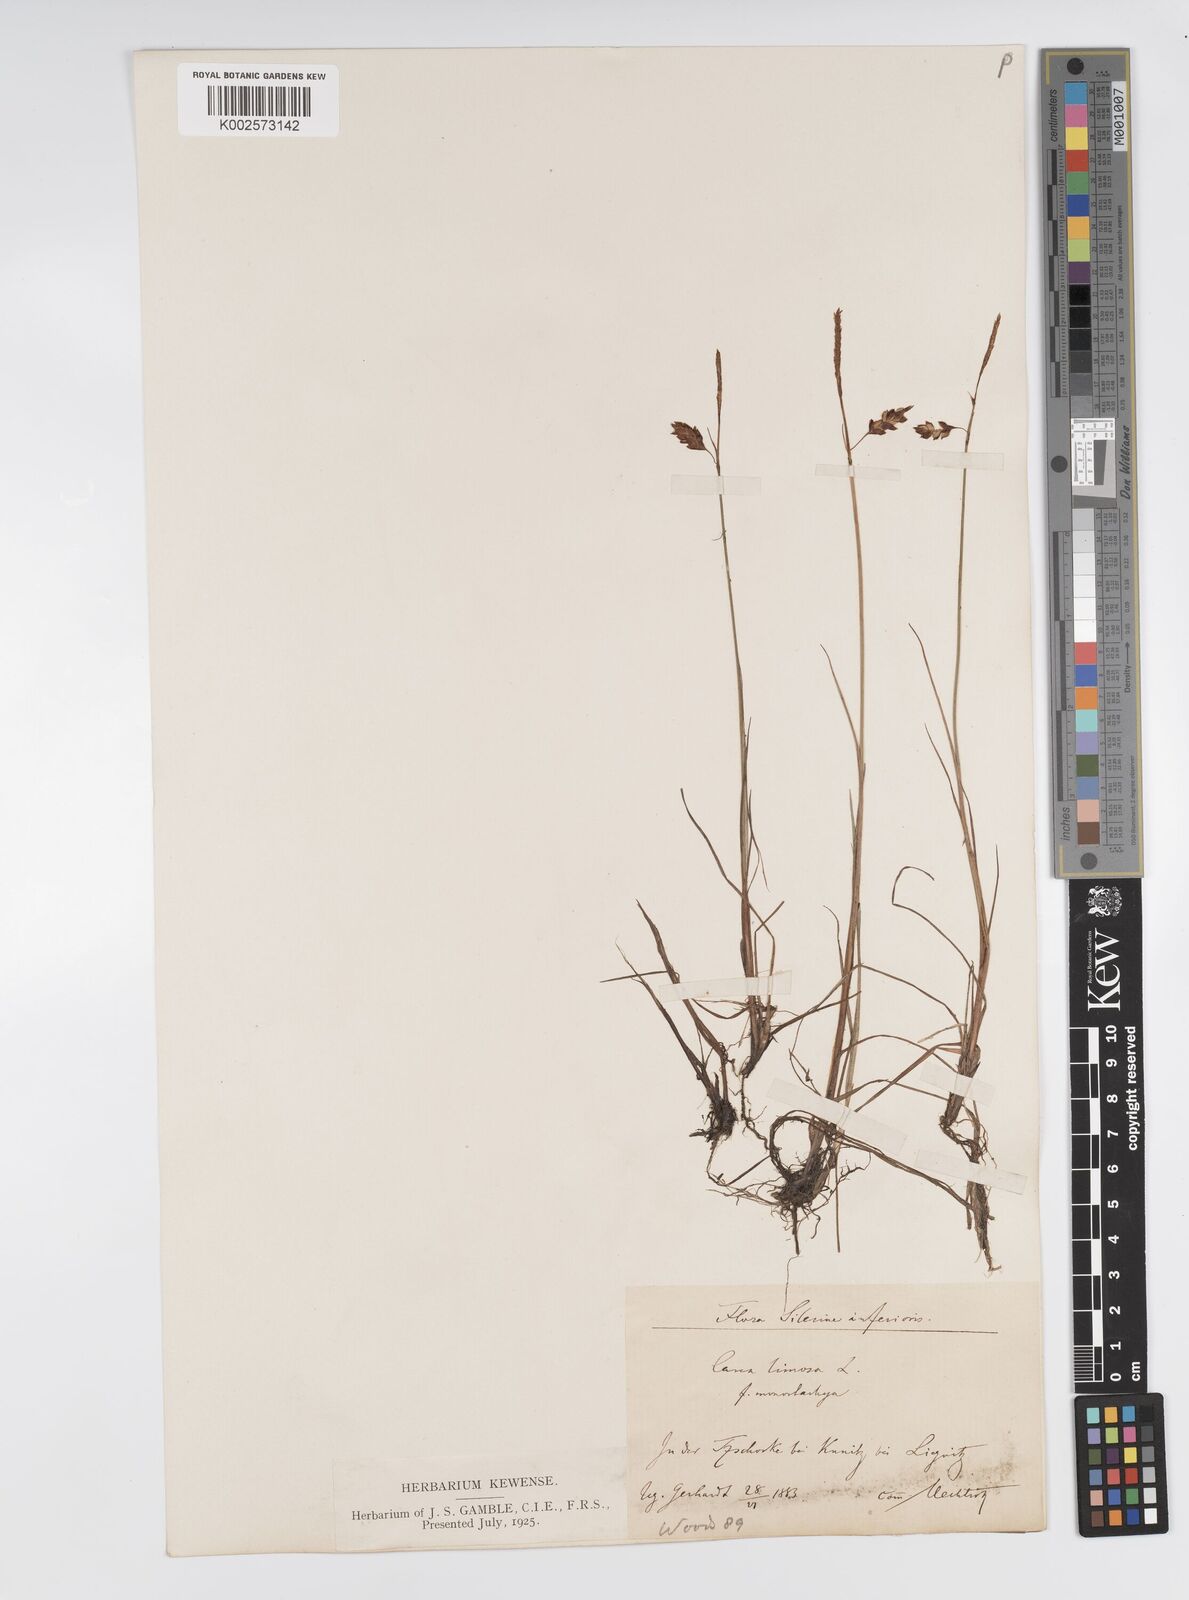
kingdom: Plantae
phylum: Tracheophyta
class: Liliopsida
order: Poales
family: Cyperaceae
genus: Carex
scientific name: Carex limosa
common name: Bog sedge
